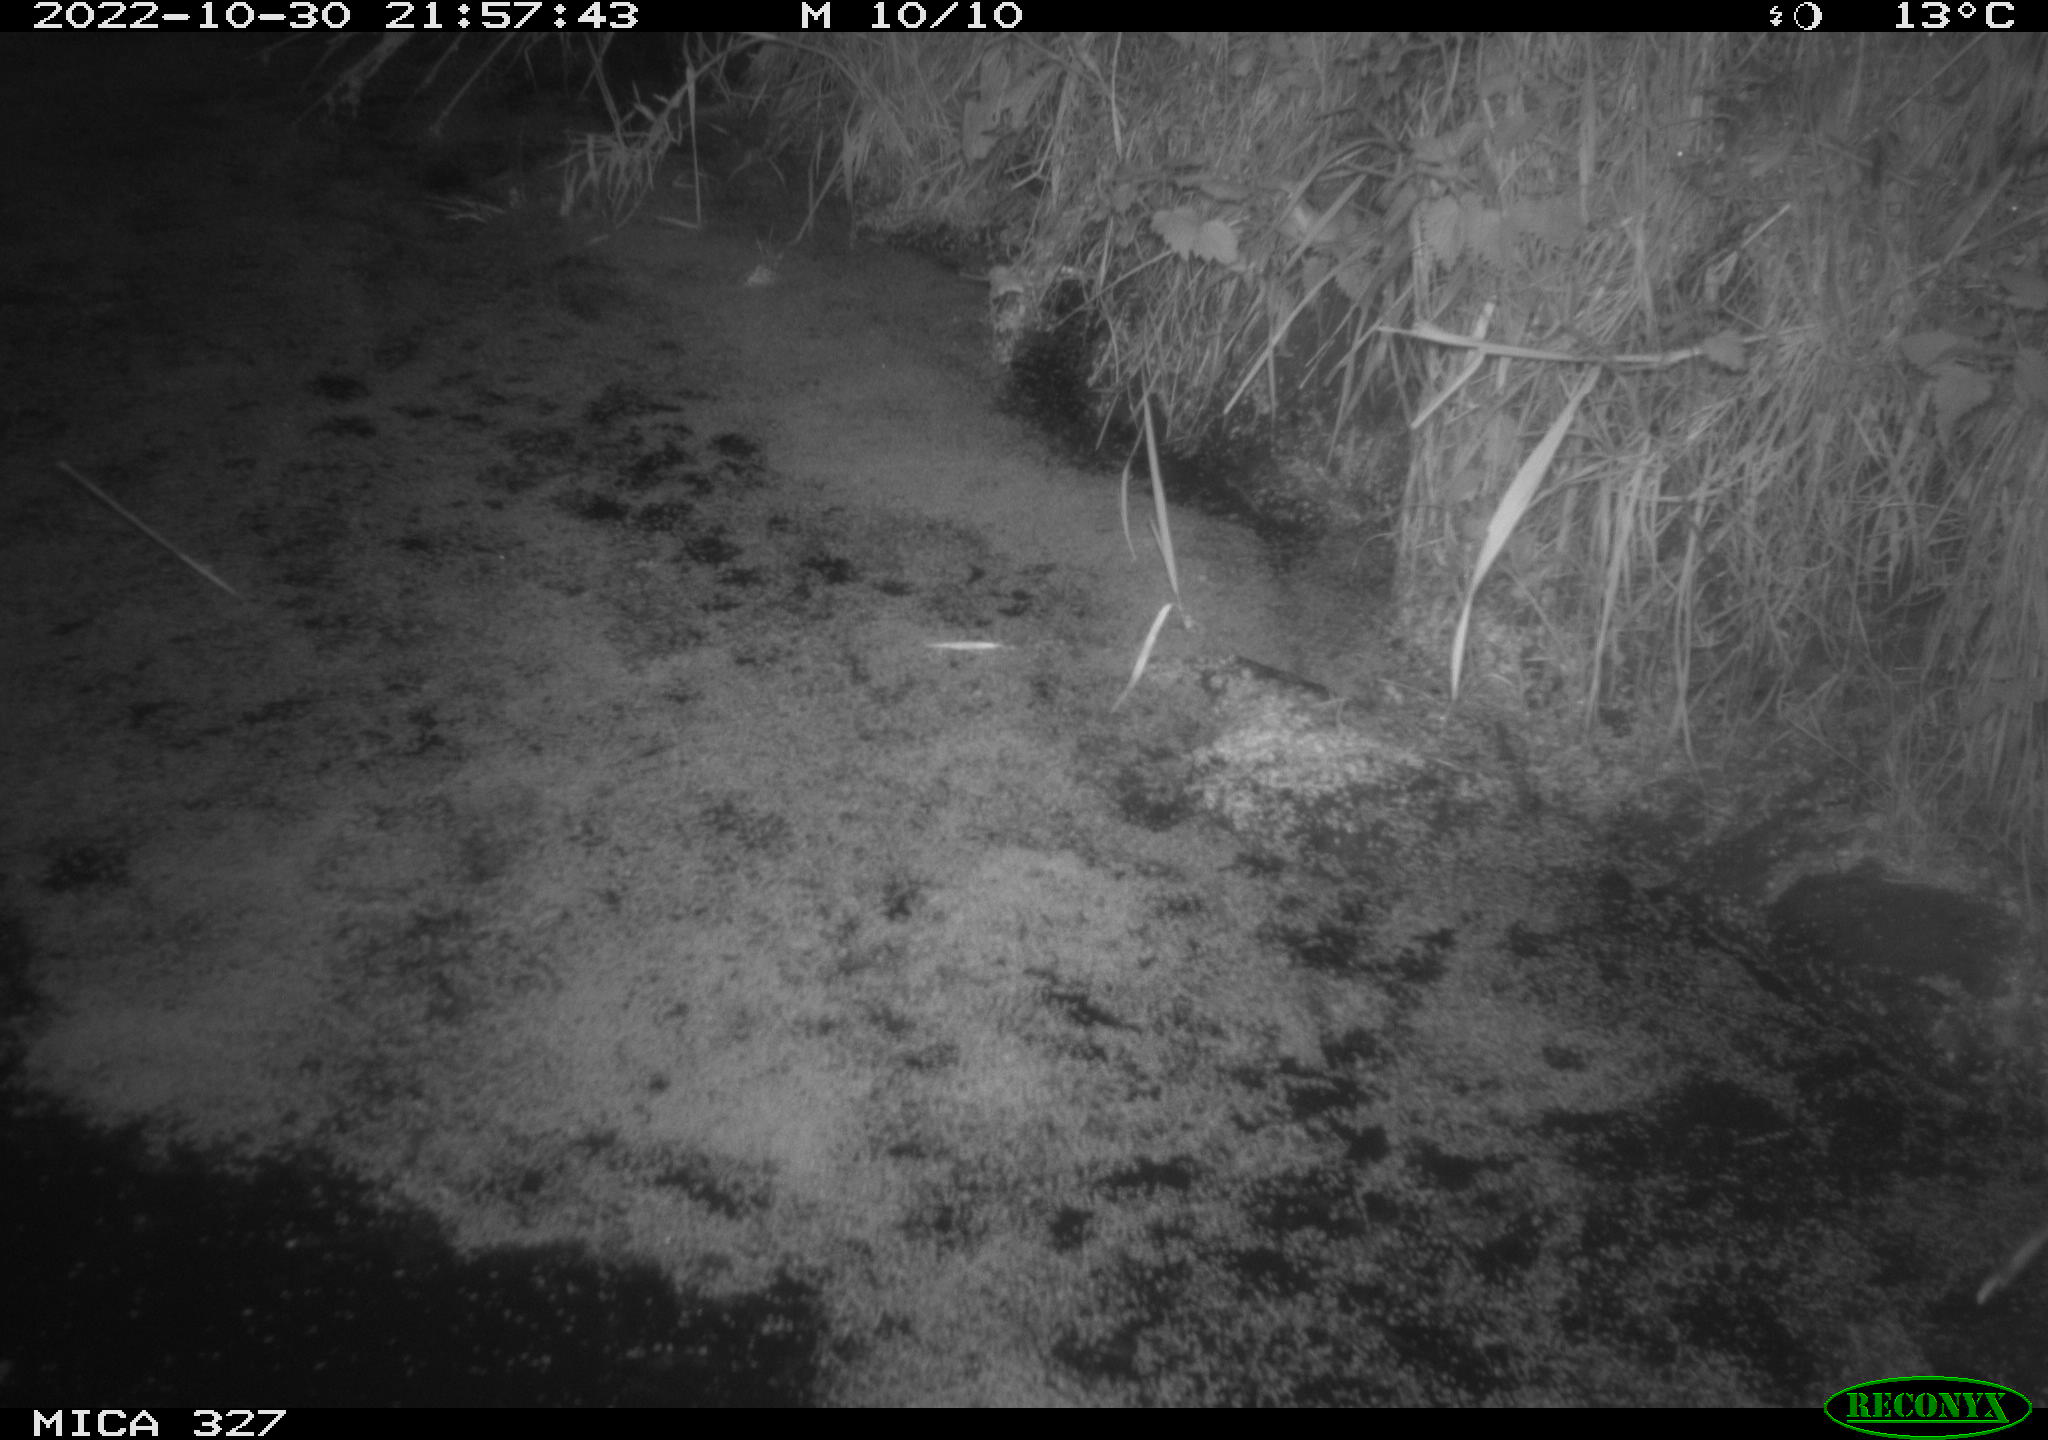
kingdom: Animalia
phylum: Chordata
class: Mammalia
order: Rodentia
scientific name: Rodentia
